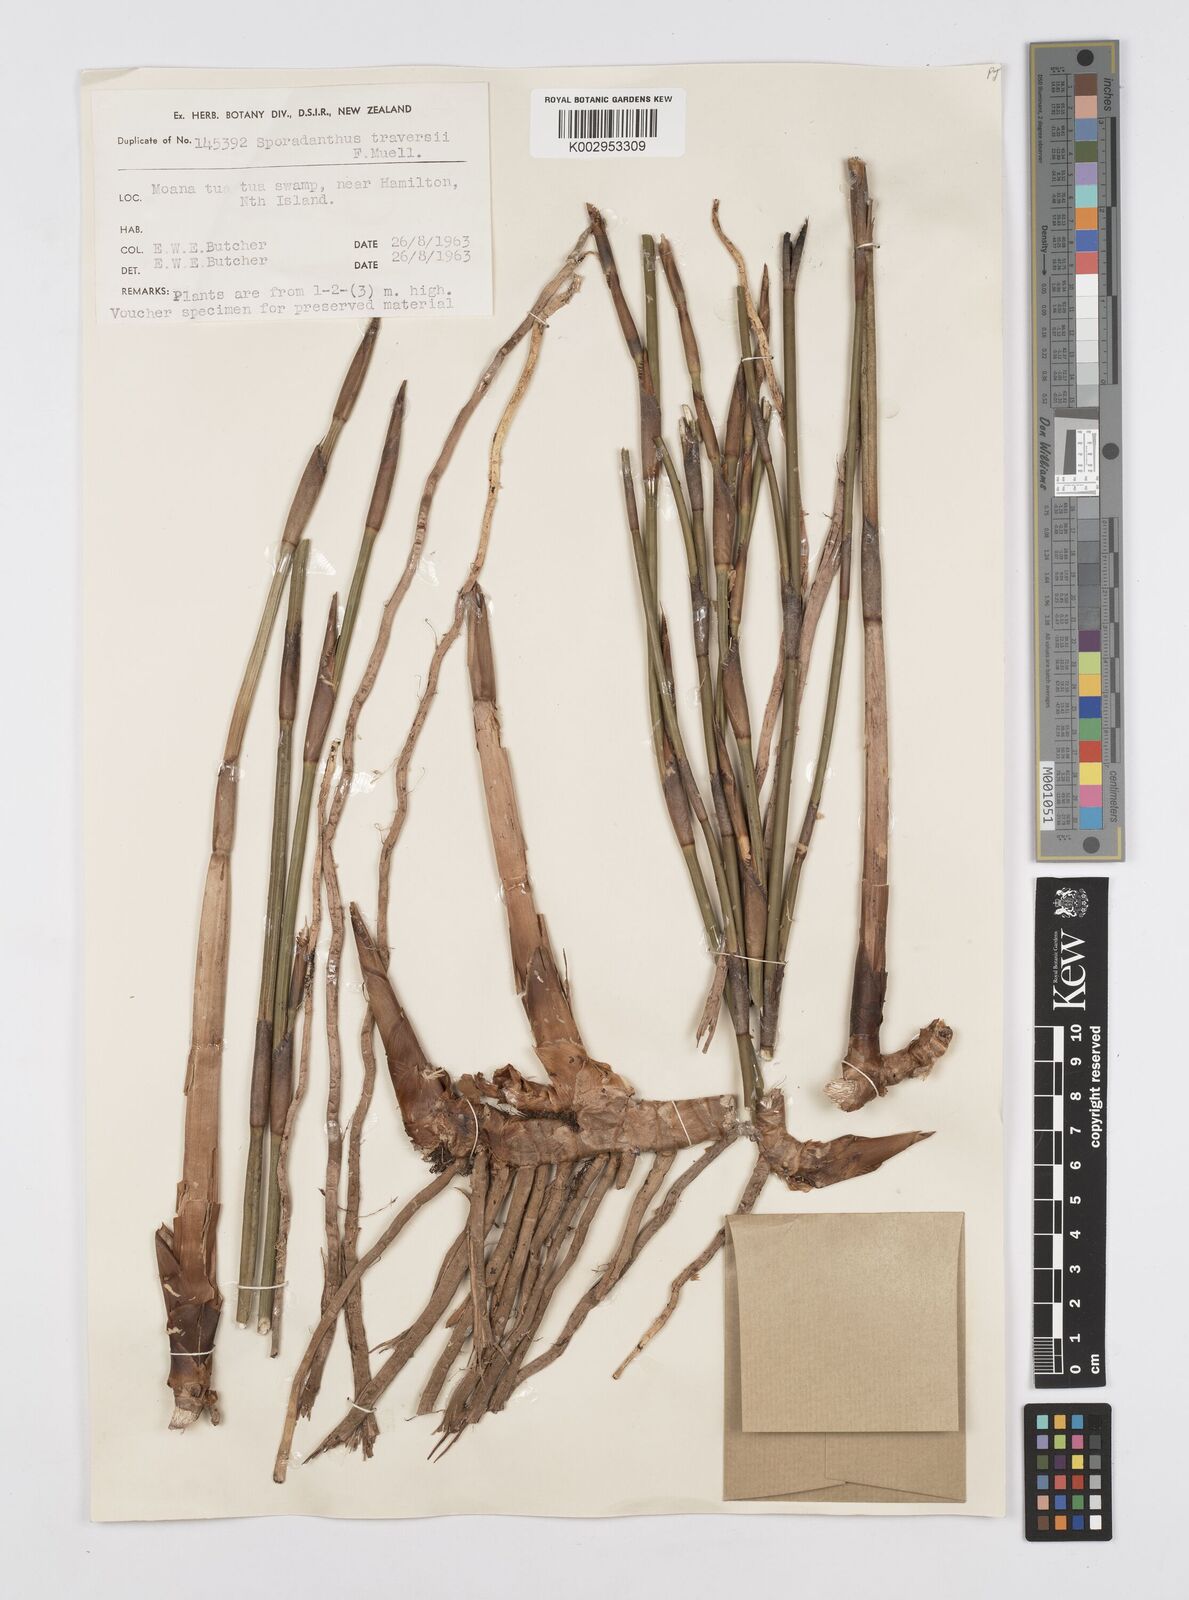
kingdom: Plantae
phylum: Tracheophyta
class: Liliopsida
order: Poales
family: Restionaceae
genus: Sporadanthus
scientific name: Sporadanthus traversii
